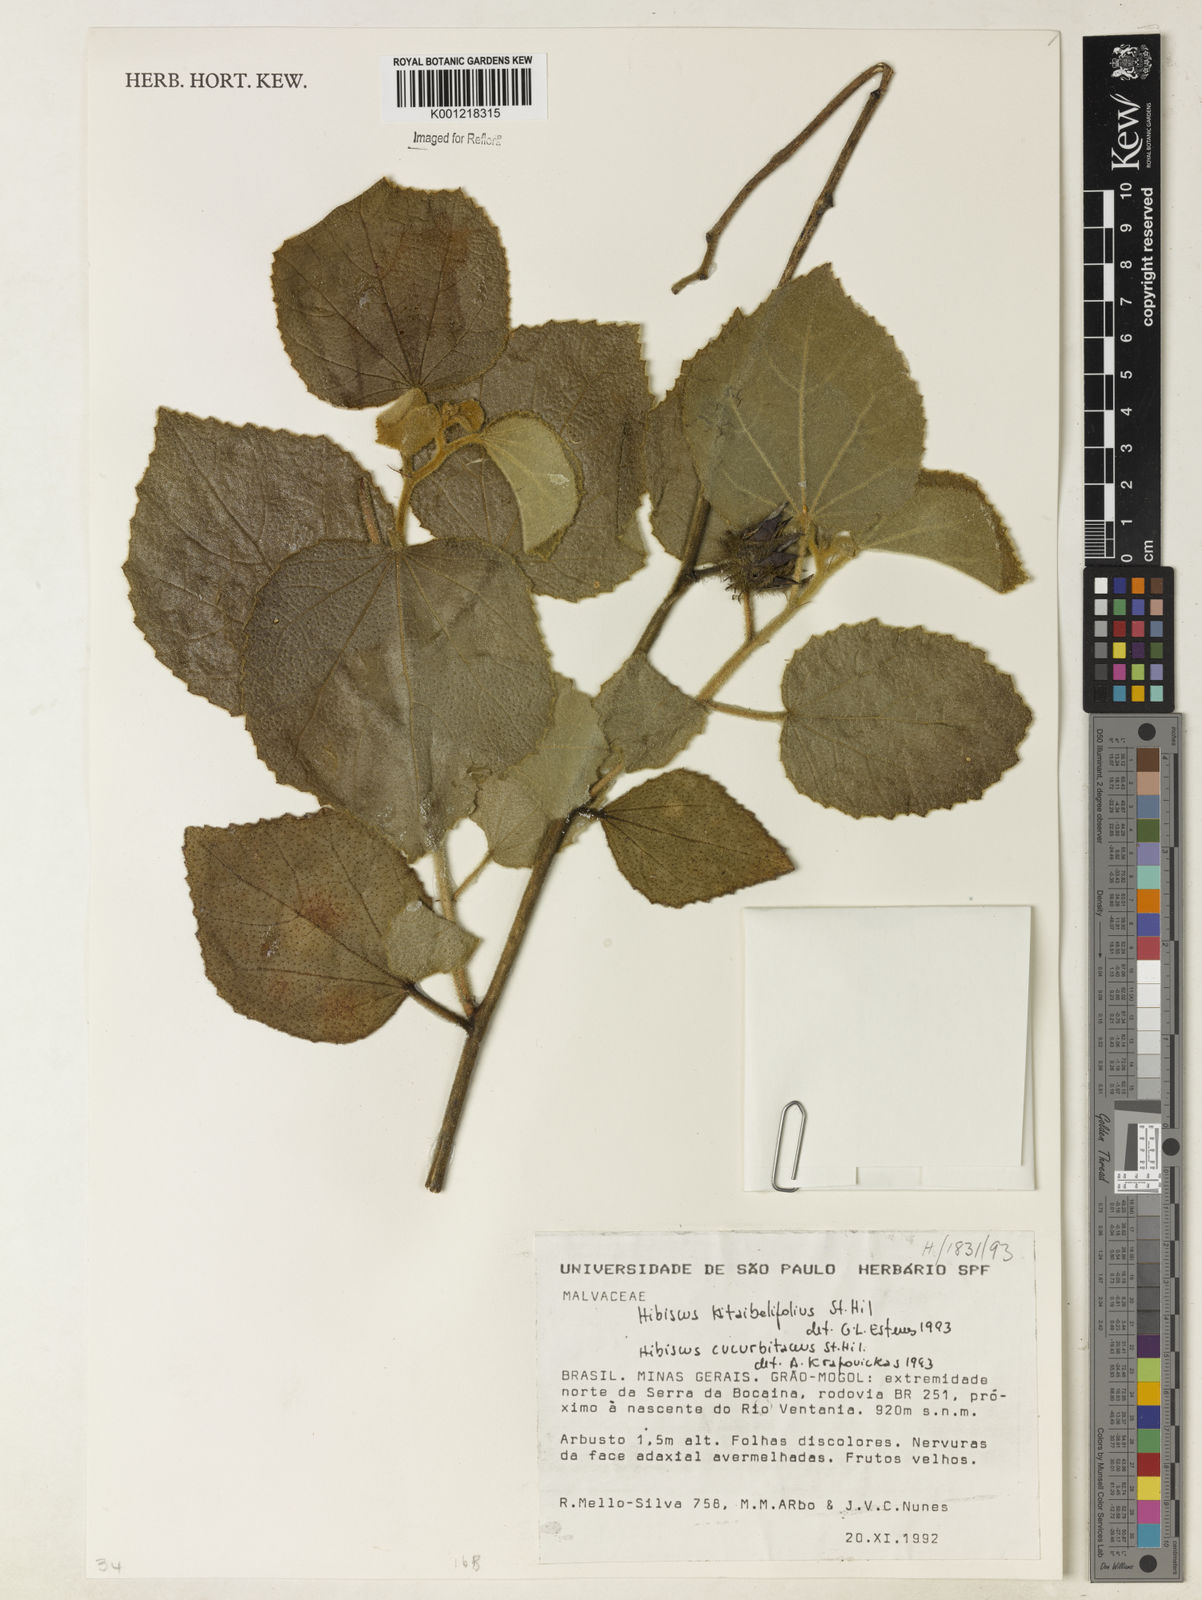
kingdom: Plantae
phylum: Tracheophyta
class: Magnoliopsida
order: Malvales
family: Malvaceae
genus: Hibiscus
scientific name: Hibiscus cucurbitaceus
